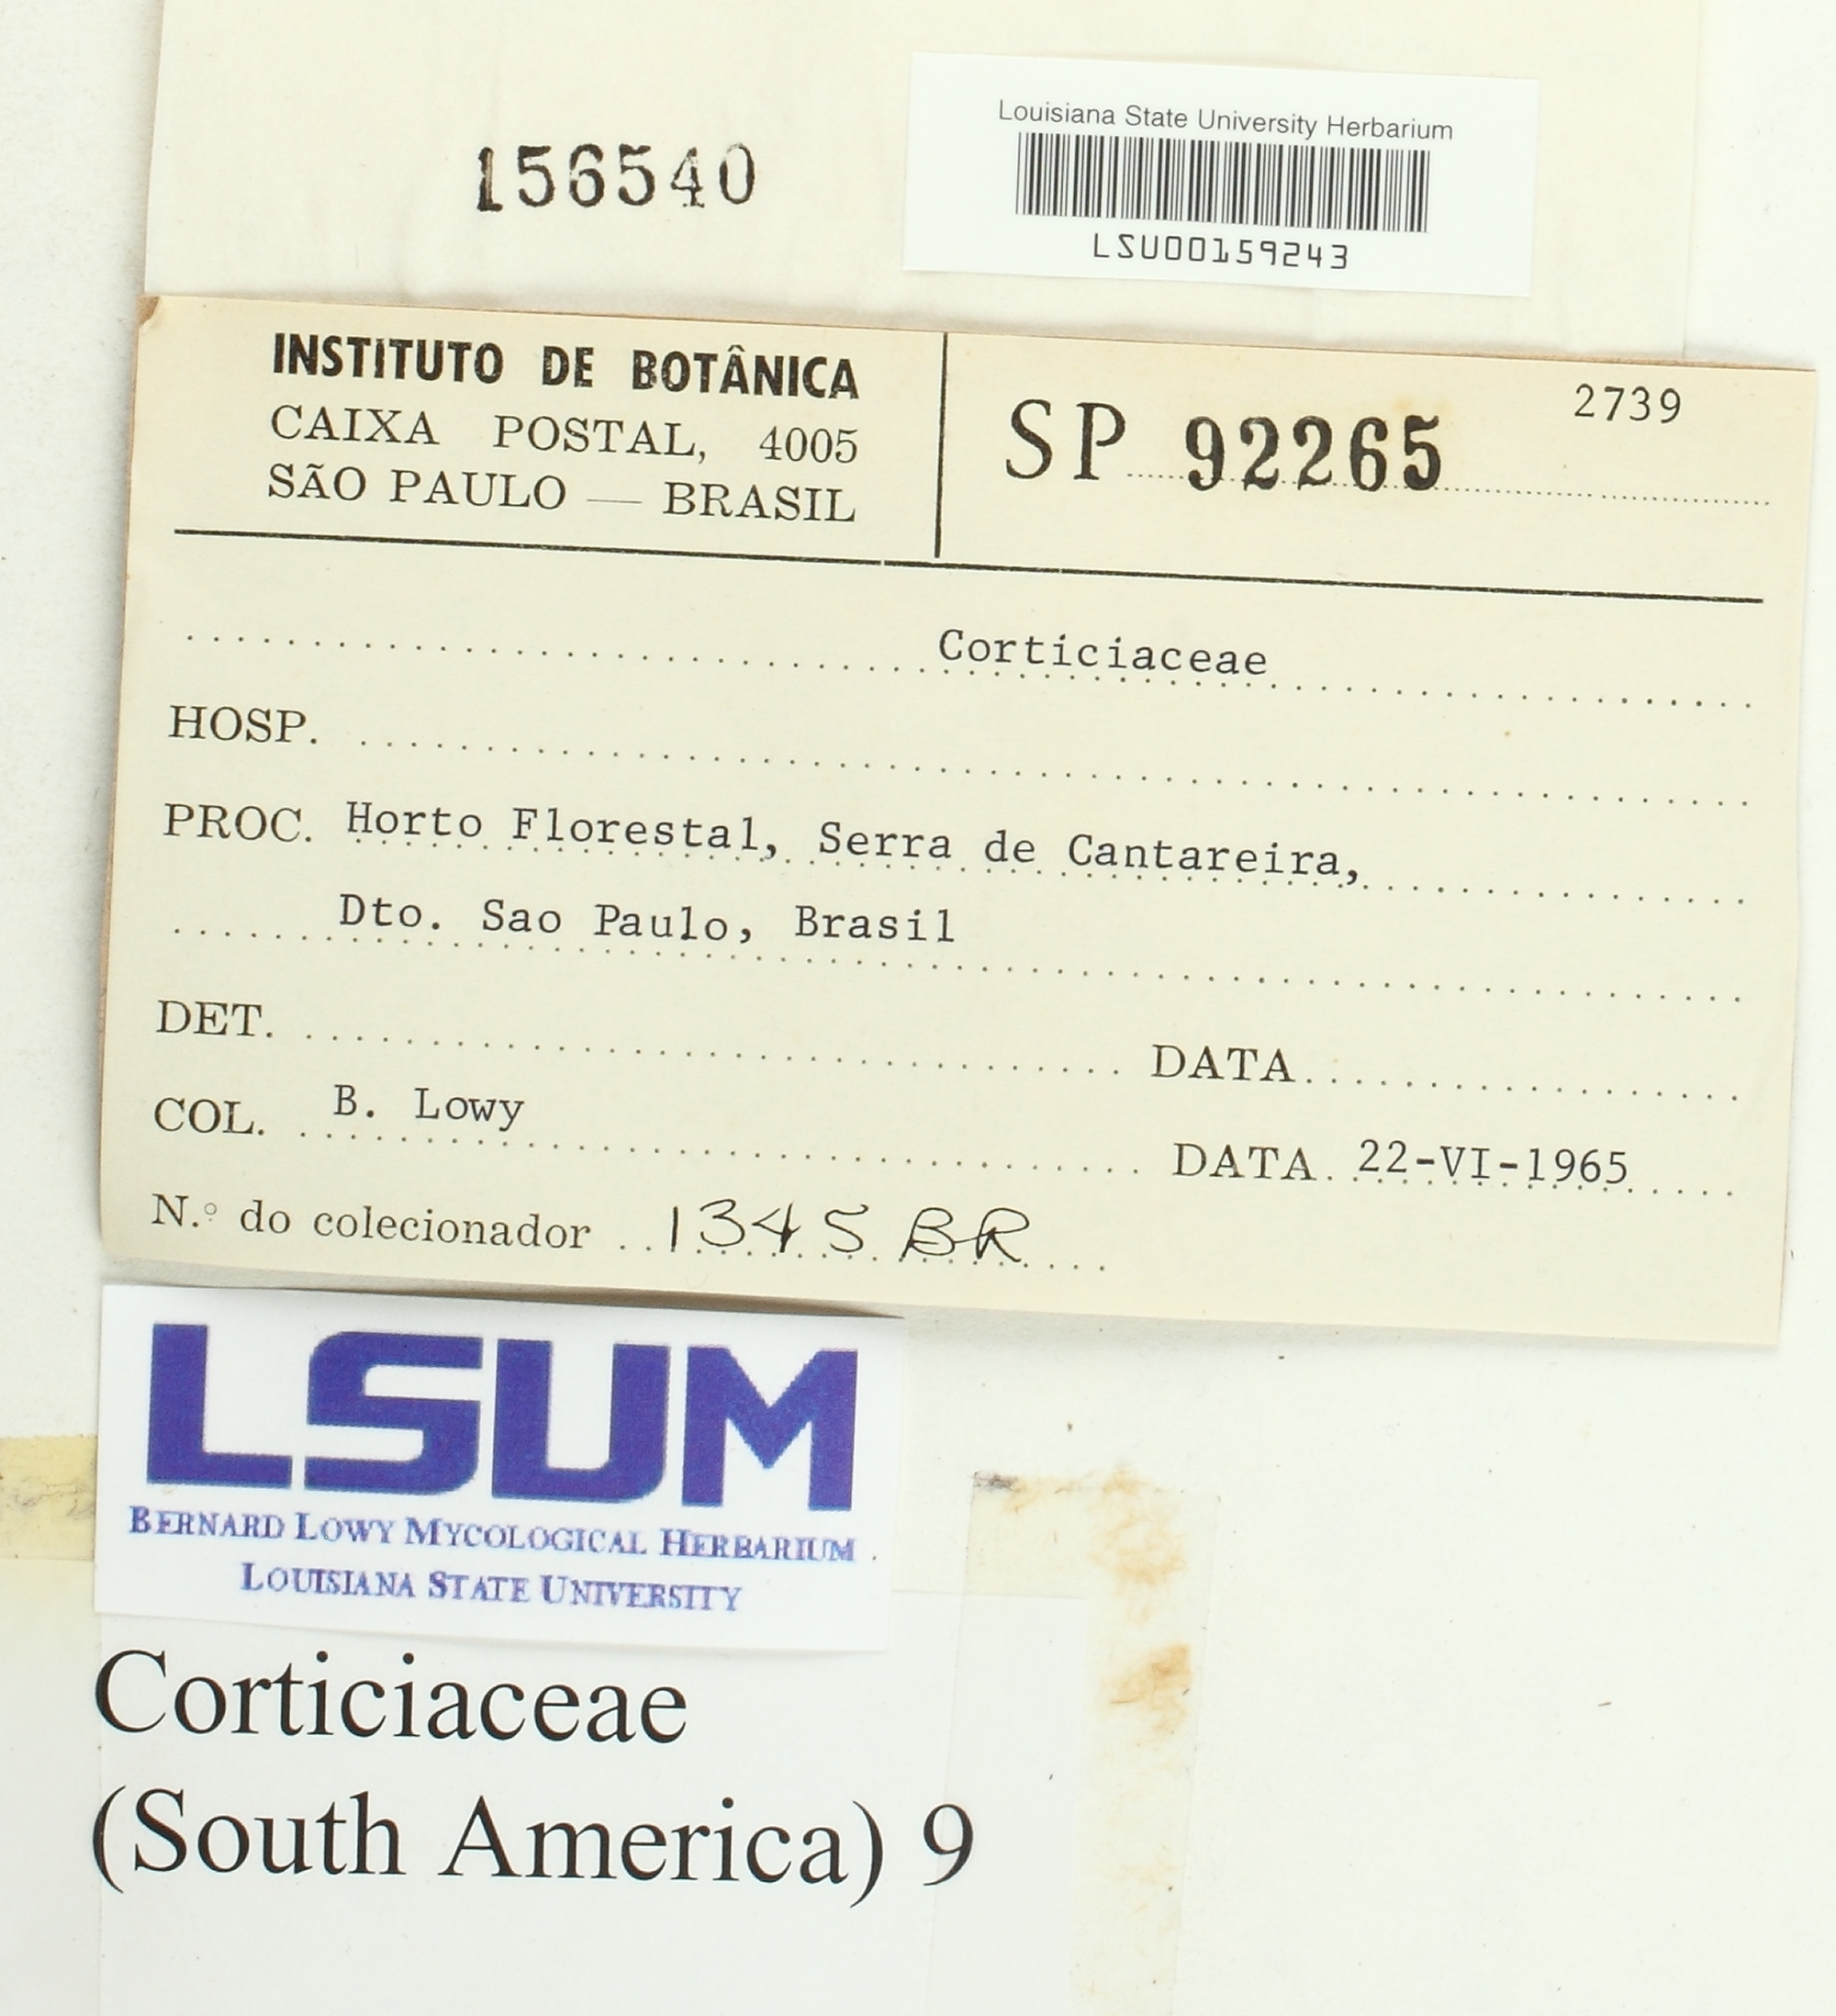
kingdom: Fungi
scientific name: Fungi
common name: Fungi
